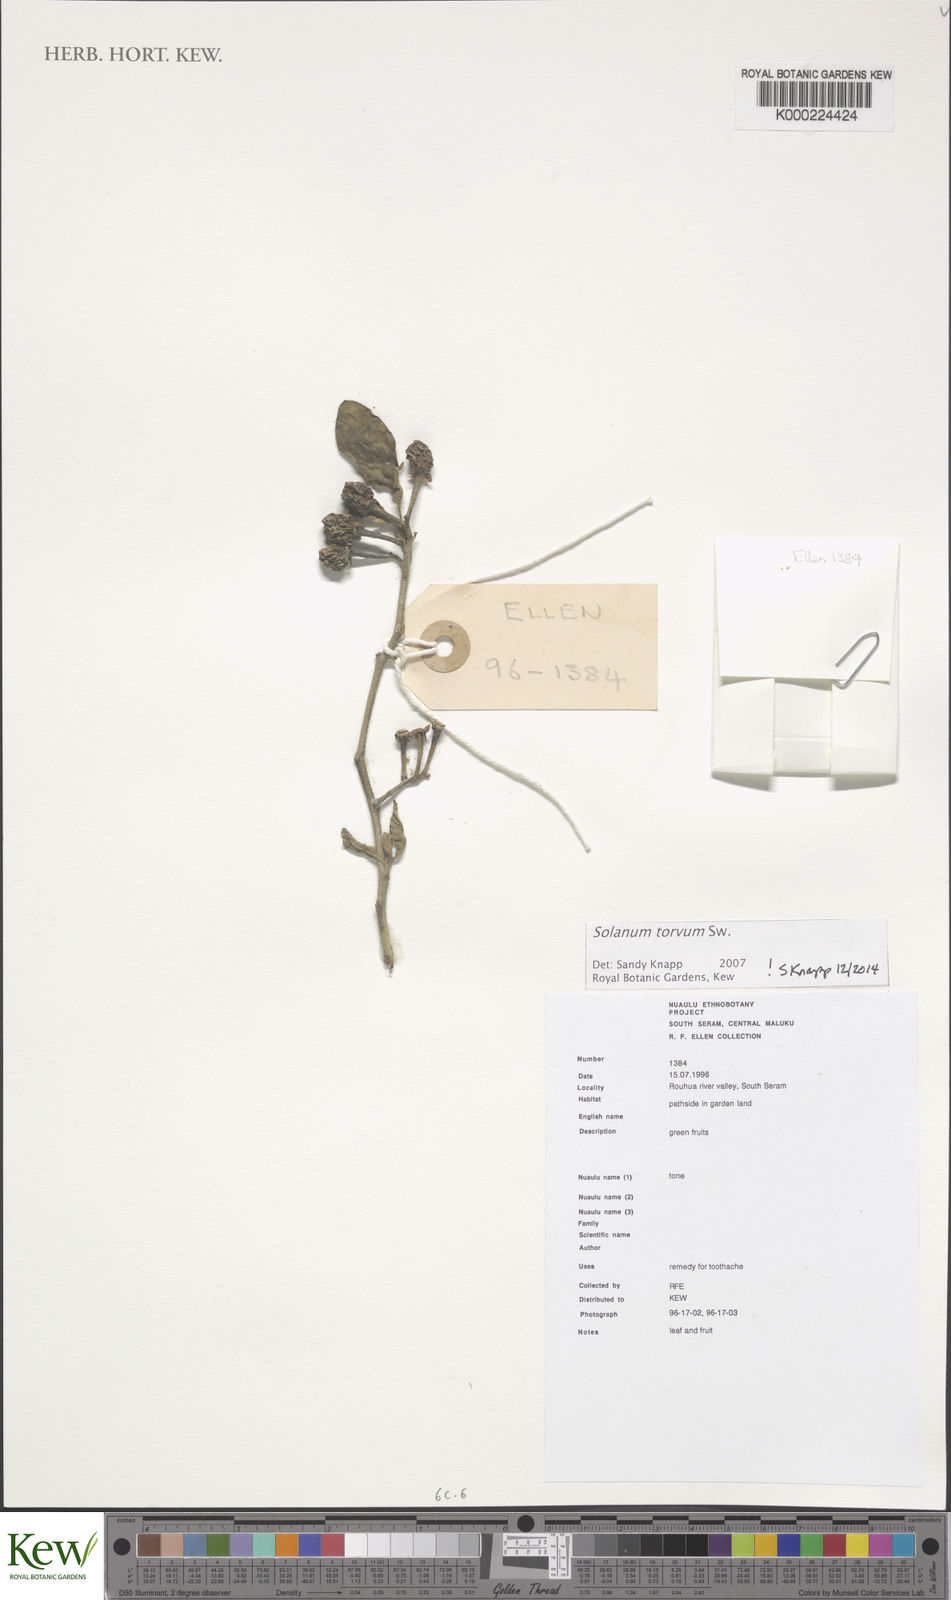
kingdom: Plantae
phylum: Tracheophyta
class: Magnoliopsida
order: Solanales
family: Solanaceae
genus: Solanum
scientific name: Solanum torvum
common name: Turkey berry
